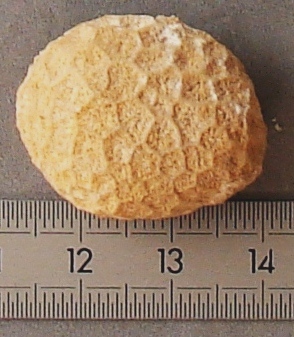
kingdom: Animalia
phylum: Cnidaria
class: Anthozoa
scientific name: Anthozoa
